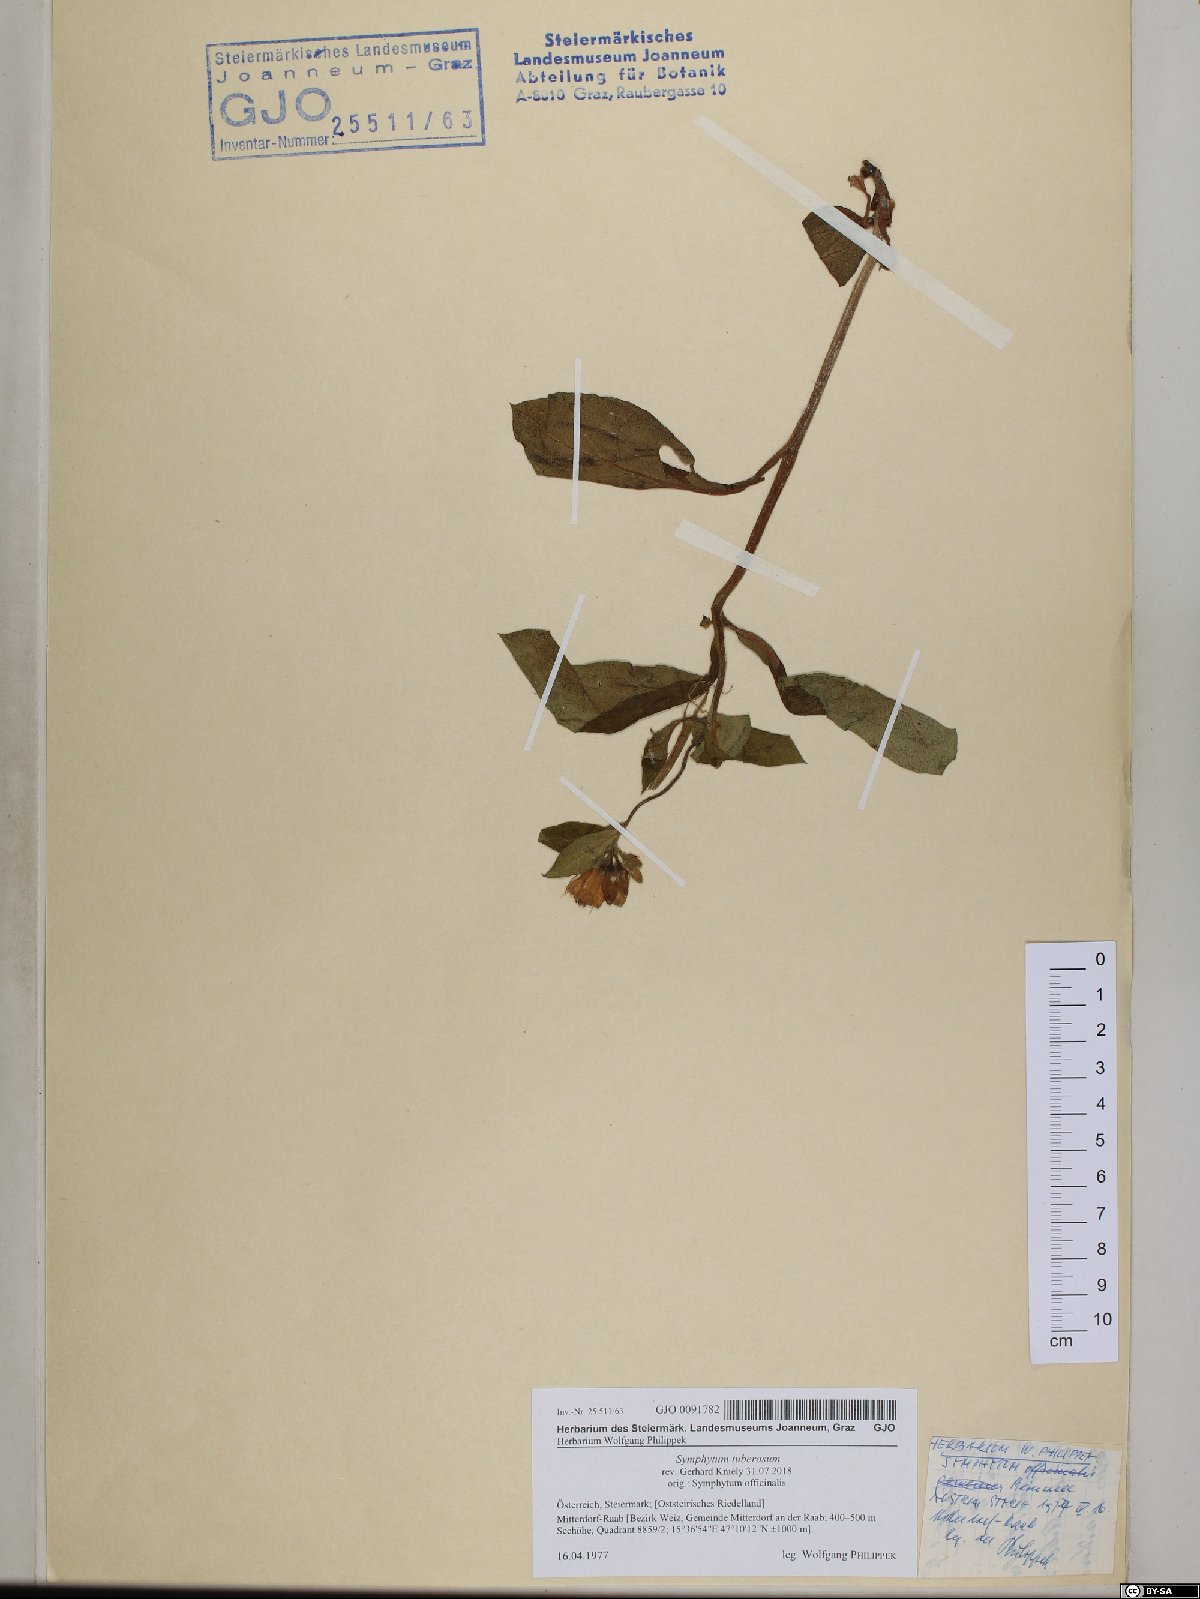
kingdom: Plantae
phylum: Tracheophyta
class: Magnoliopsida
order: Boraginales
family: Boraginaceae
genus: Symphytum
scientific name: Symphytum tuberosum
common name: Tuberous comfrey
